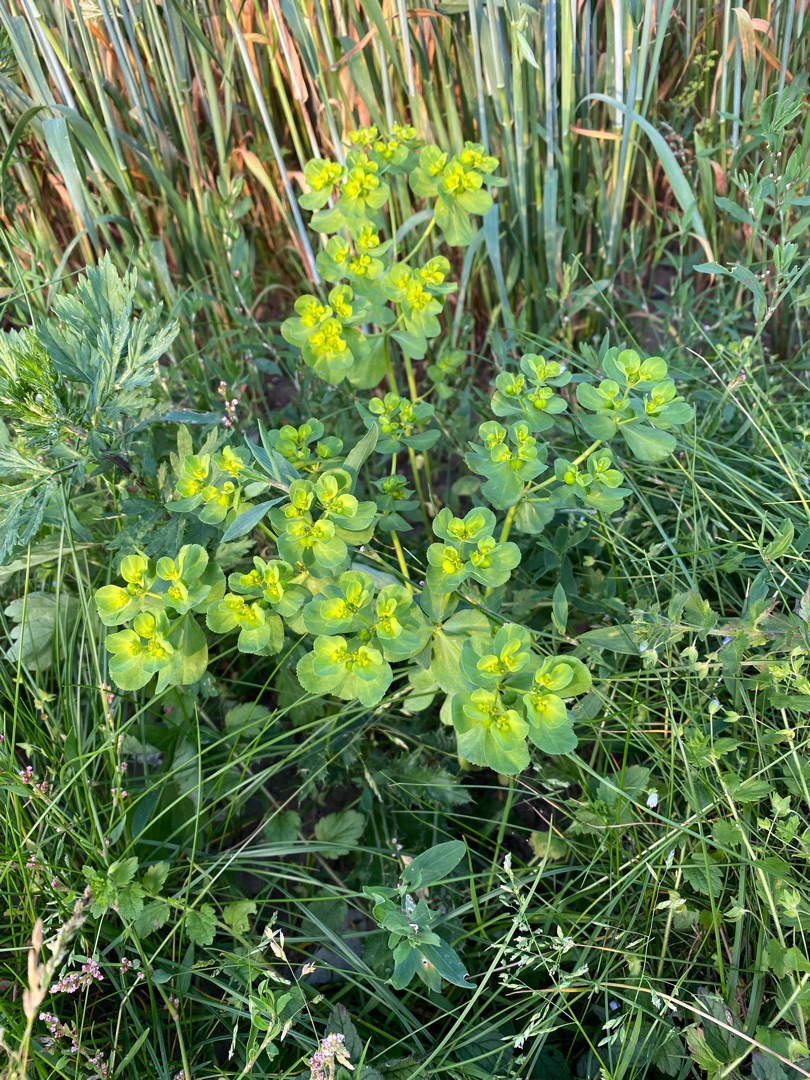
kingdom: Plantae
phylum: Tracheophyta
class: Magnoliopsida
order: Malpighiales
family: Euphorbiaceae
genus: Euphorbia
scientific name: Euphorbia helioscopia
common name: Skærm-vortemælk
